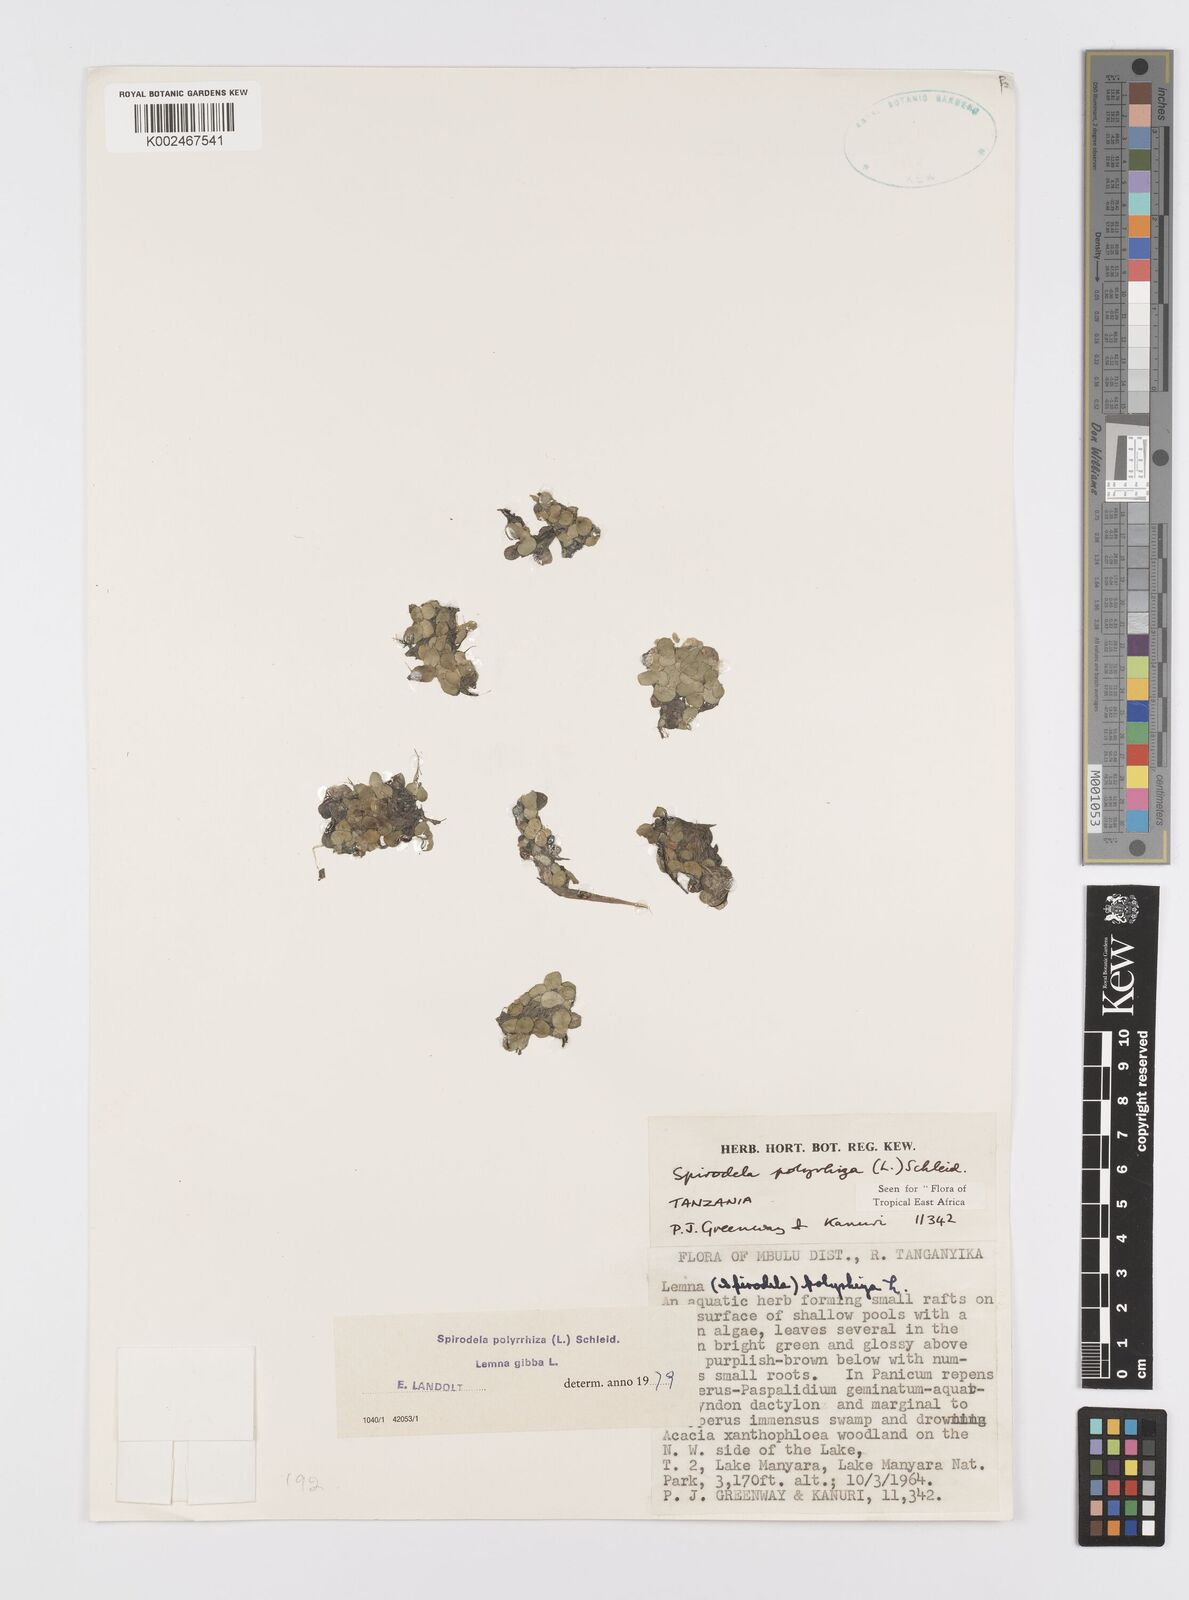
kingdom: Plantae
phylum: Tracheophyta
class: Liliopsida
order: Alismatales
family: Araceae
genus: Spirodela
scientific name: Spirodela polyrhiza
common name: Great duckweed
